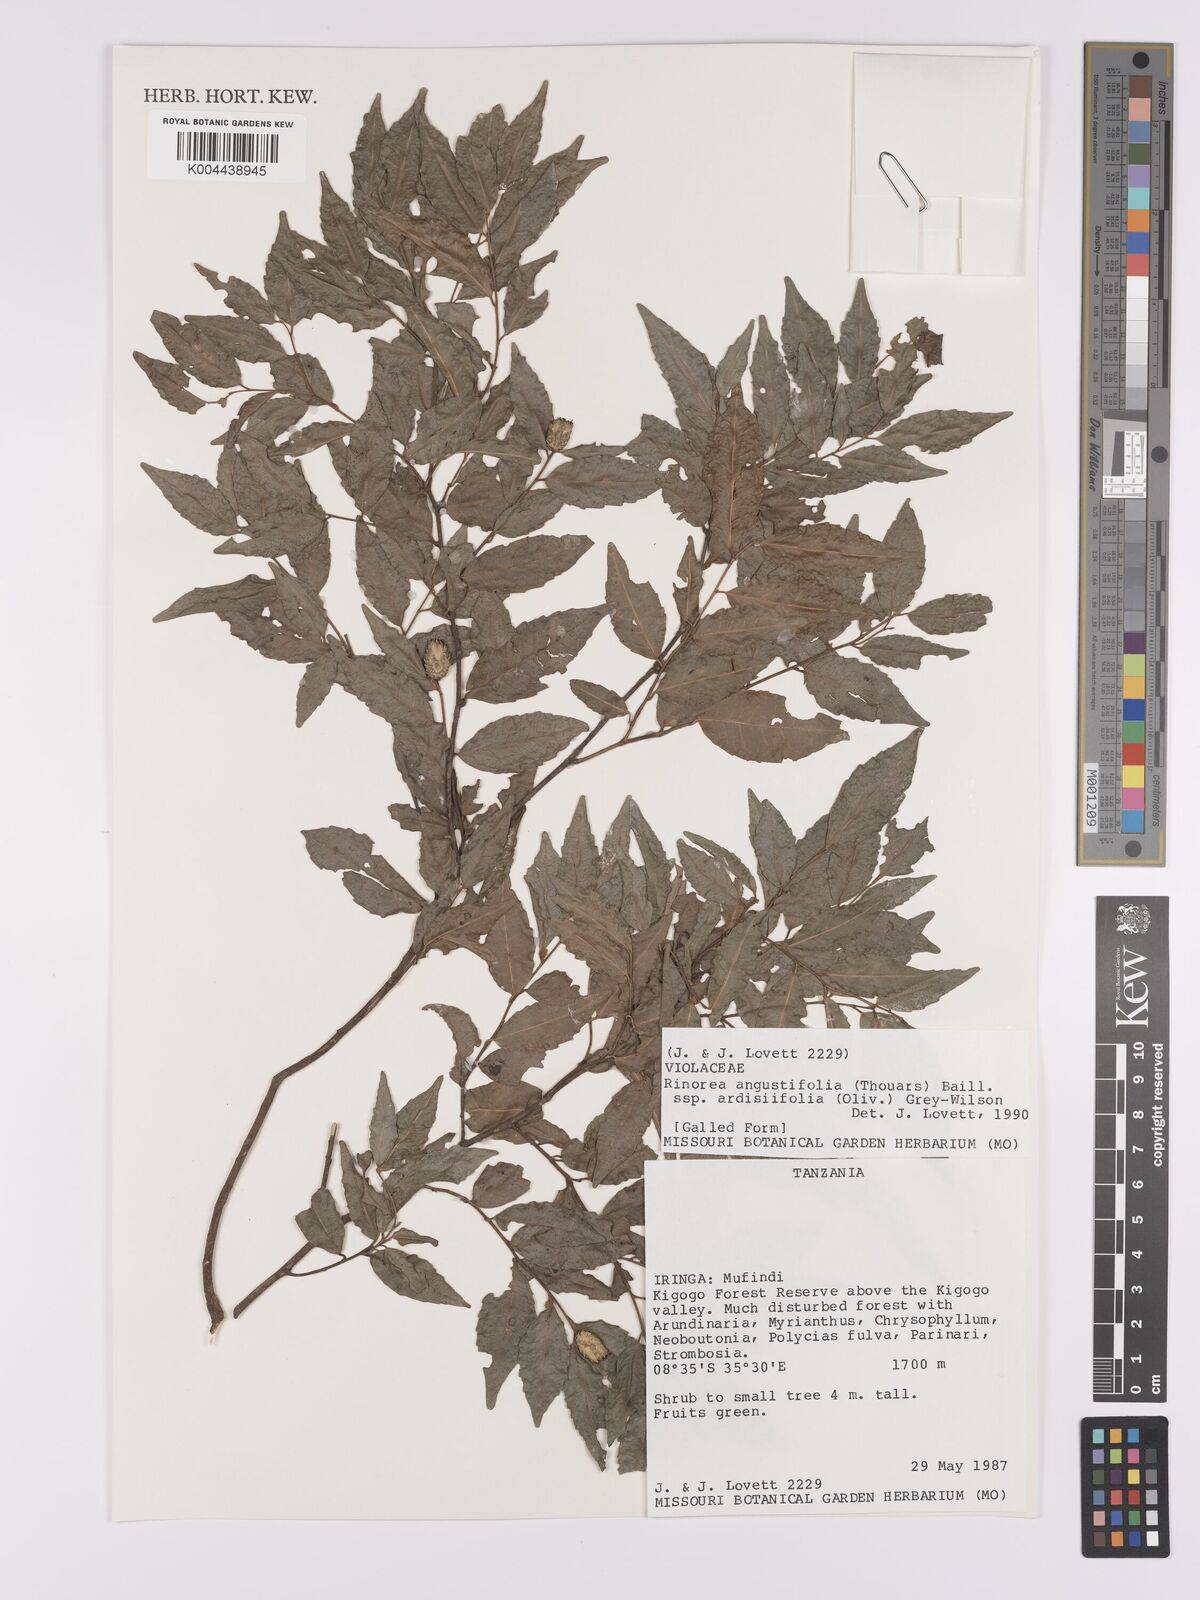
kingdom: Plantae
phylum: Tracheophyta
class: Magnoliopsida
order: Malpighiales
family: Violaceae
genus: Rinorea
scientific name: Rinorea angustifolia
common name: White violet-bush
